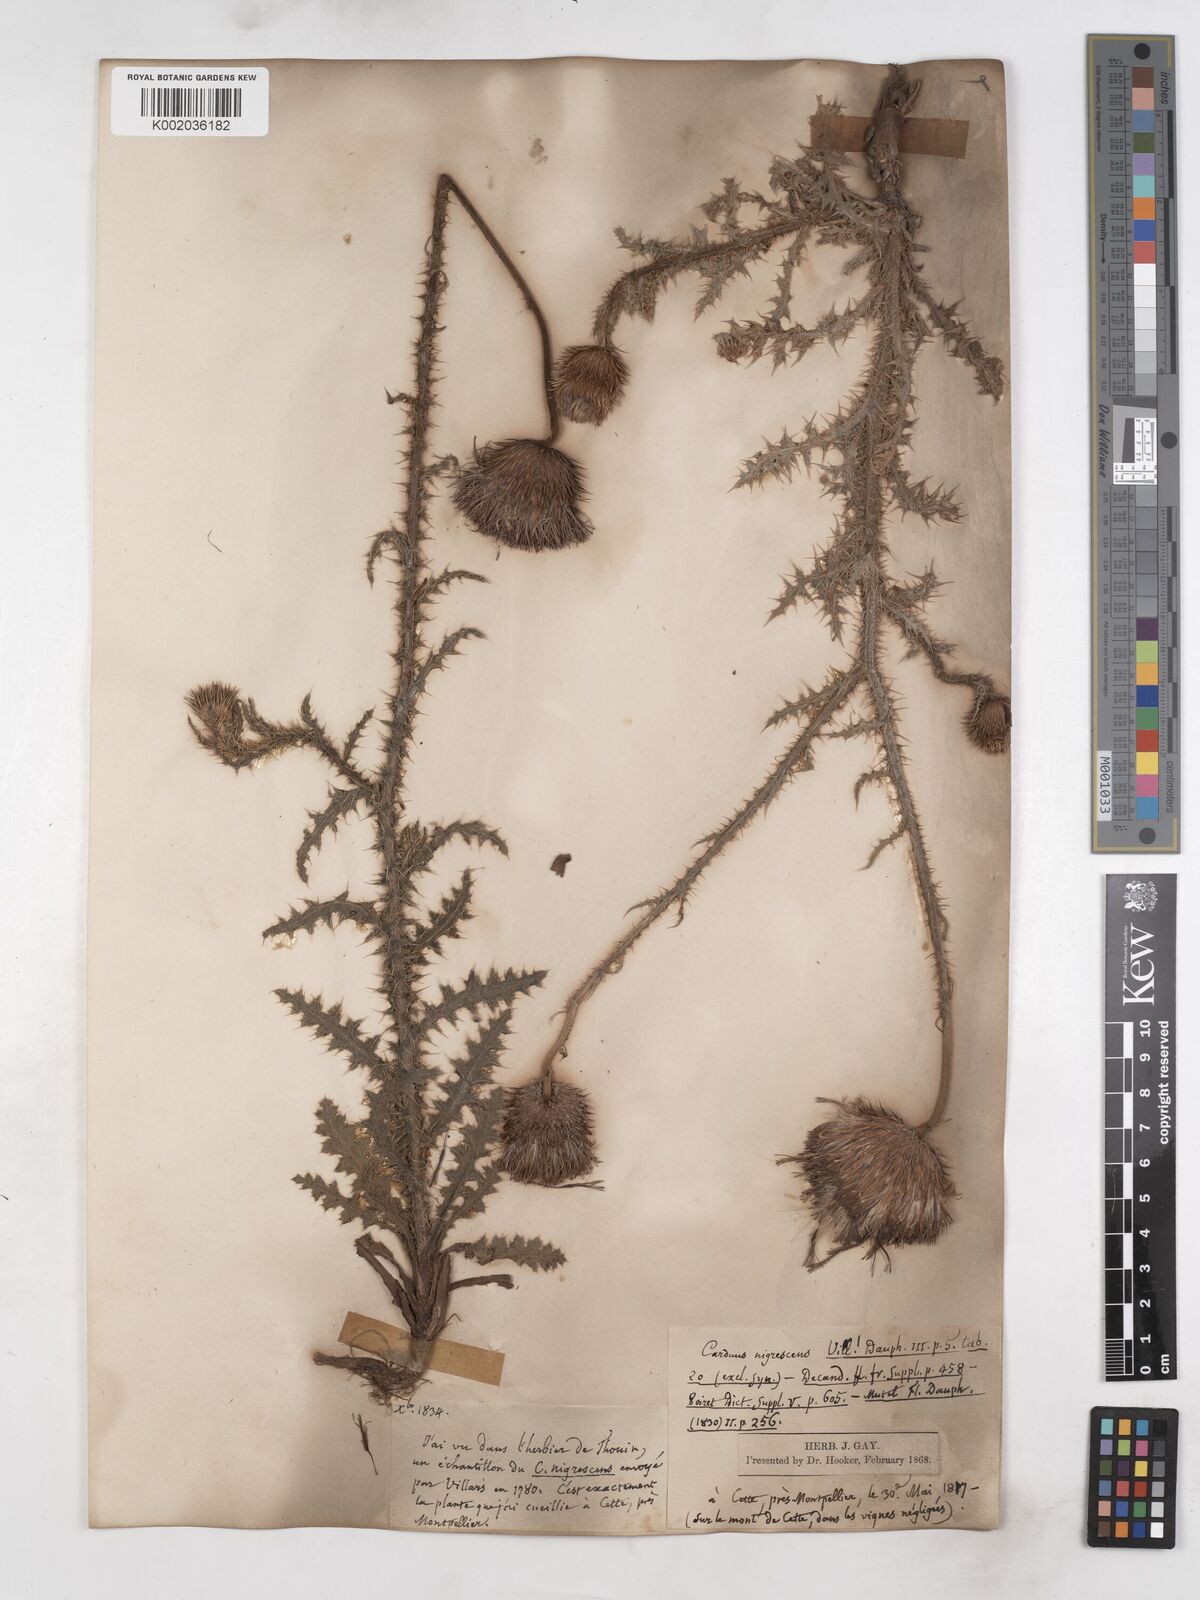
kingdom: Plantae
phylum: Tracheophyta
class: Magnoliopsida
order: Asterales
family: Asteraceae
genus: Carduus
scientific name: Carduus nigrescens
